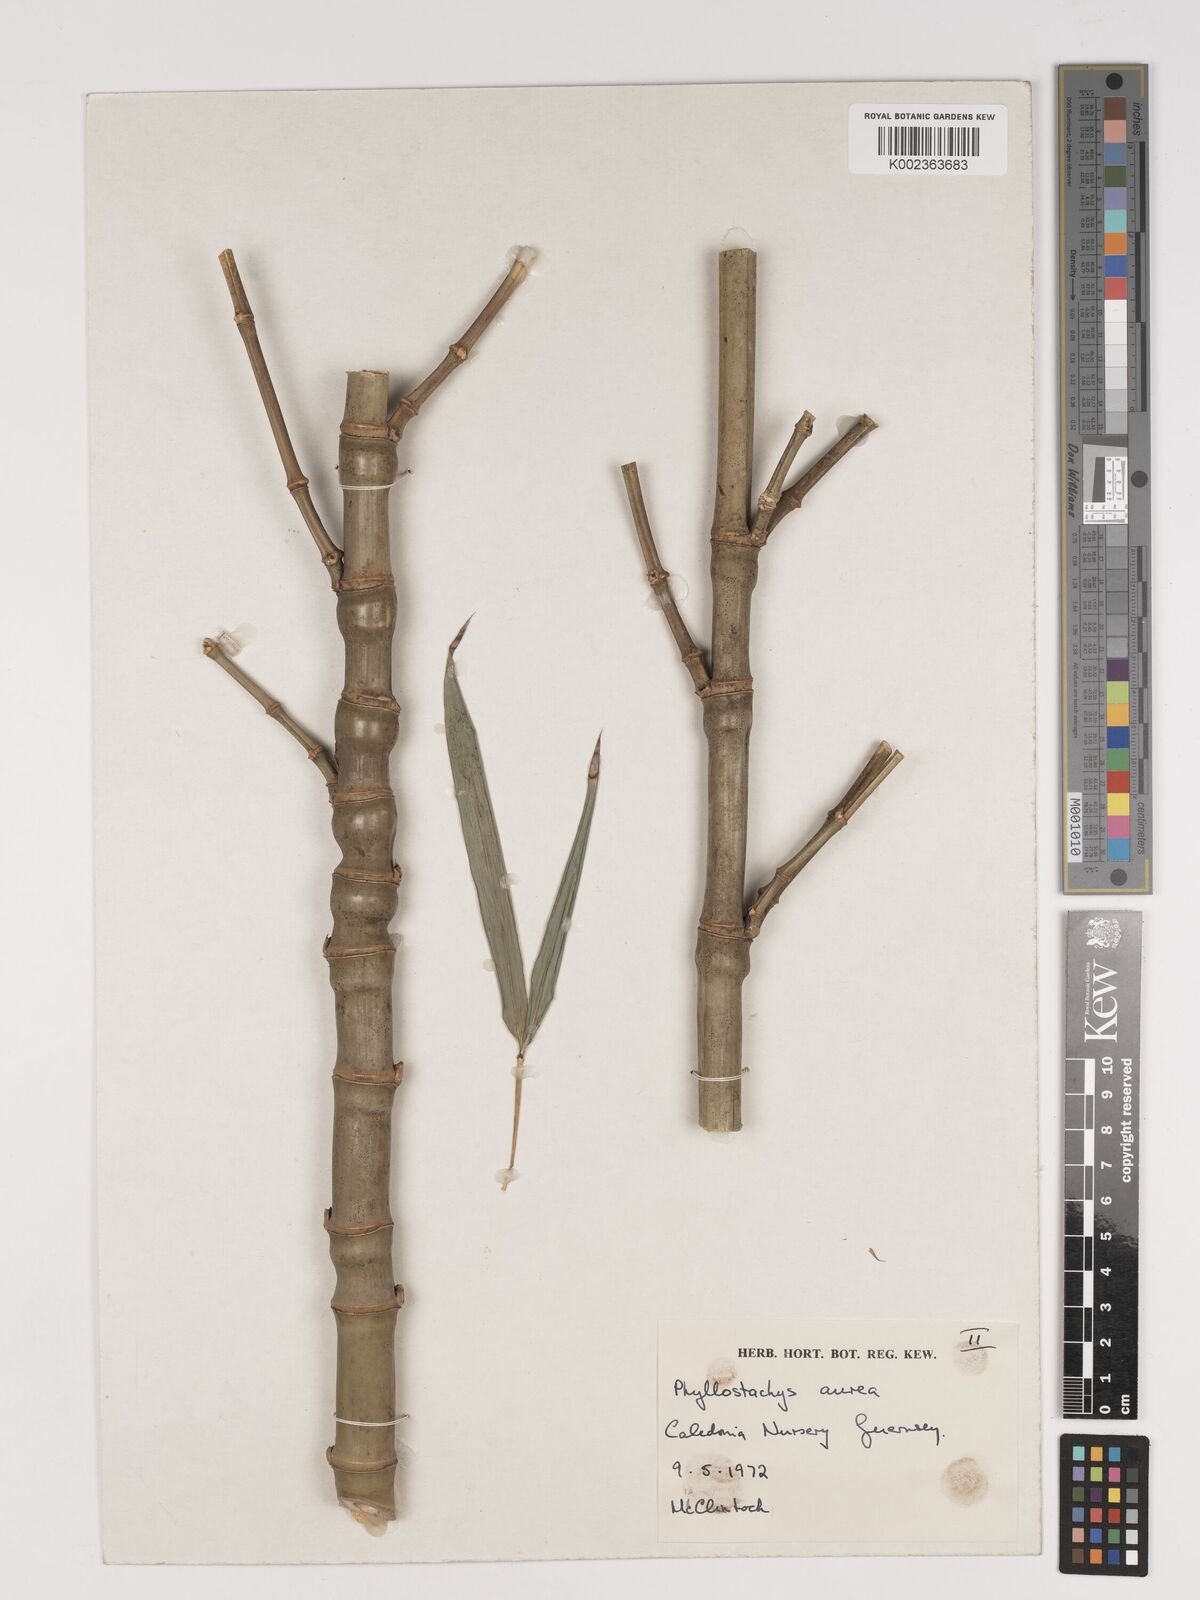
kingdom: Plantae
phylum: Tracheophyta
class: Liliopsida
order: Poales
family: Poaceae
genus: Phyllostachys
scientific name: Phyllostachys aurea
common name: Golden bamboo
